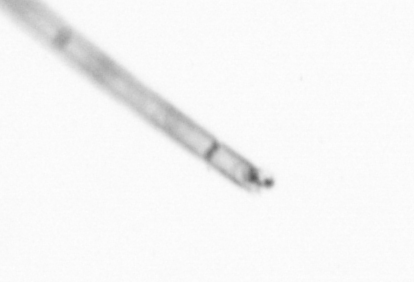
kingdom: Chromista
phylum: Ochrophyta
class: Bacillariophyceae
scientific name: Bacillariophyceae
